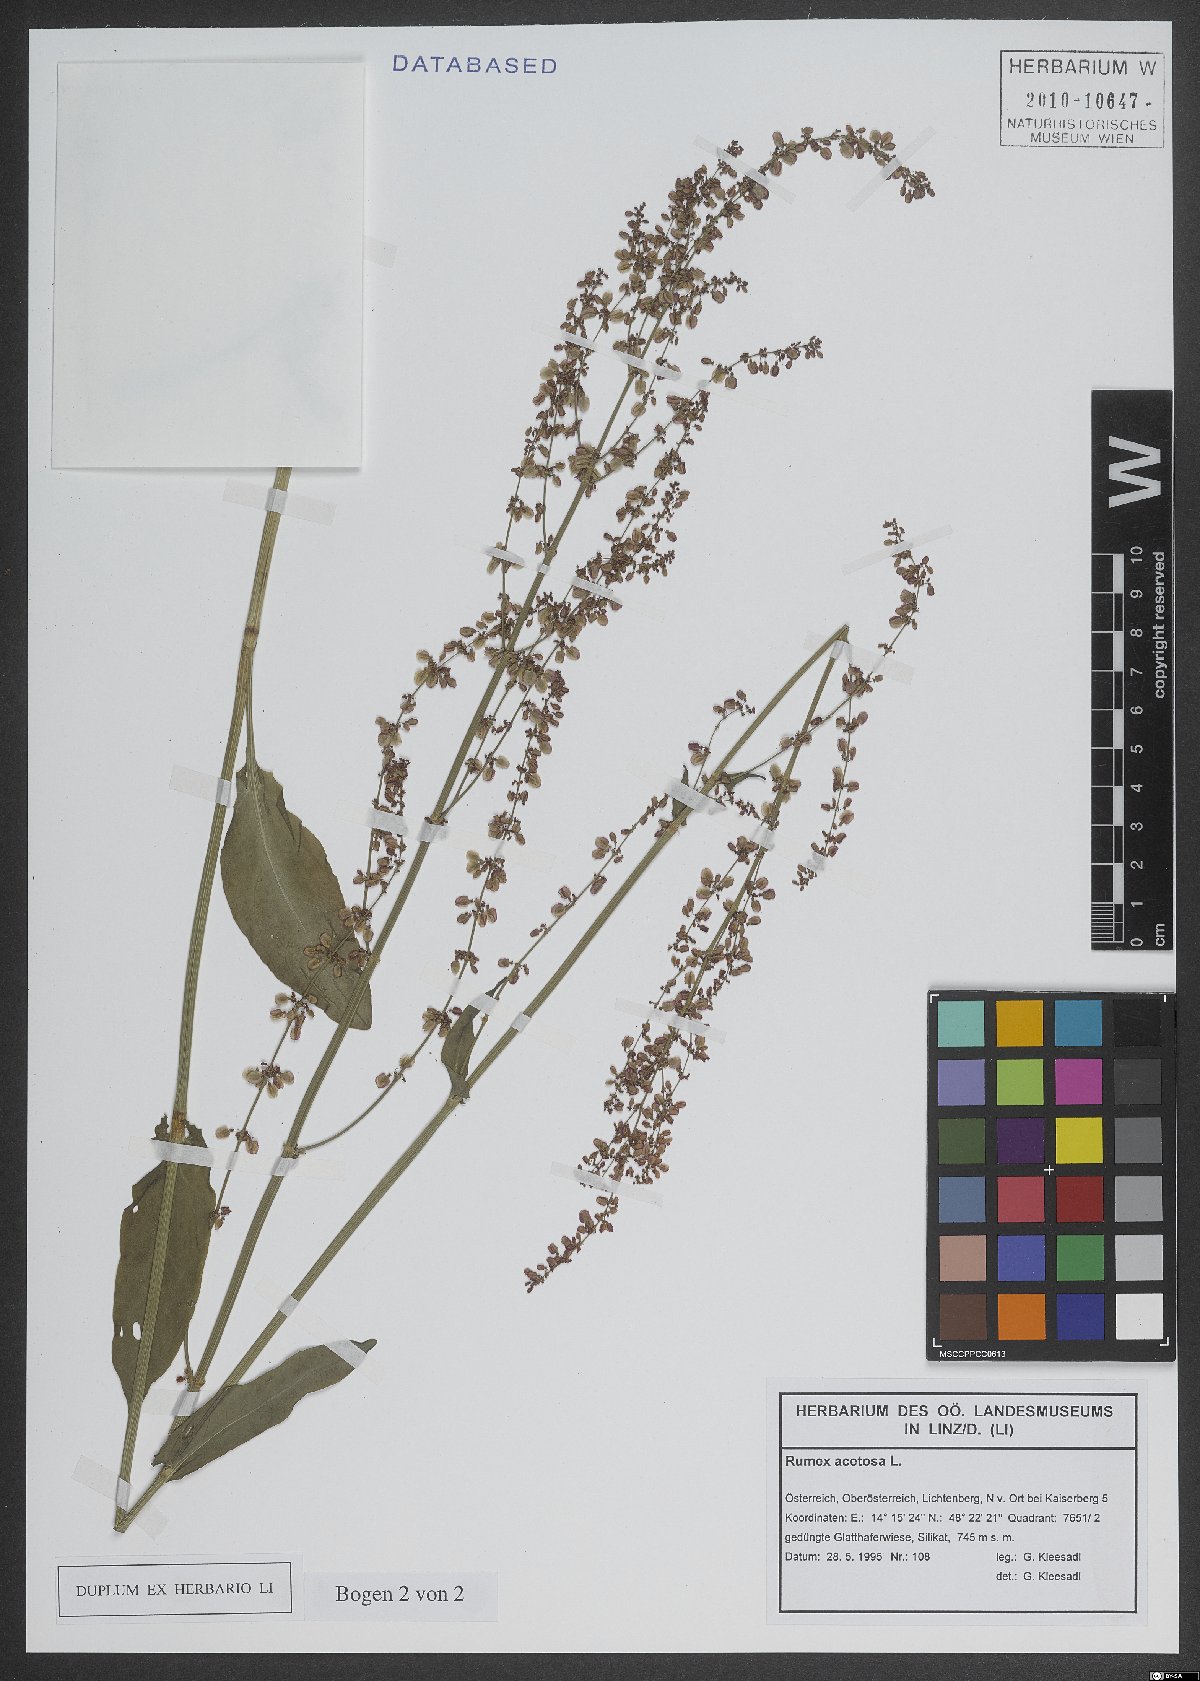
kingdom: Plantae
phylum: Tracheophyta
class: Magnoliopsida
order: Caryophyllales
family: Polygonaceae
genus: Rumex
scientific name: Rumex acetosa
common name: Garden sorrel
